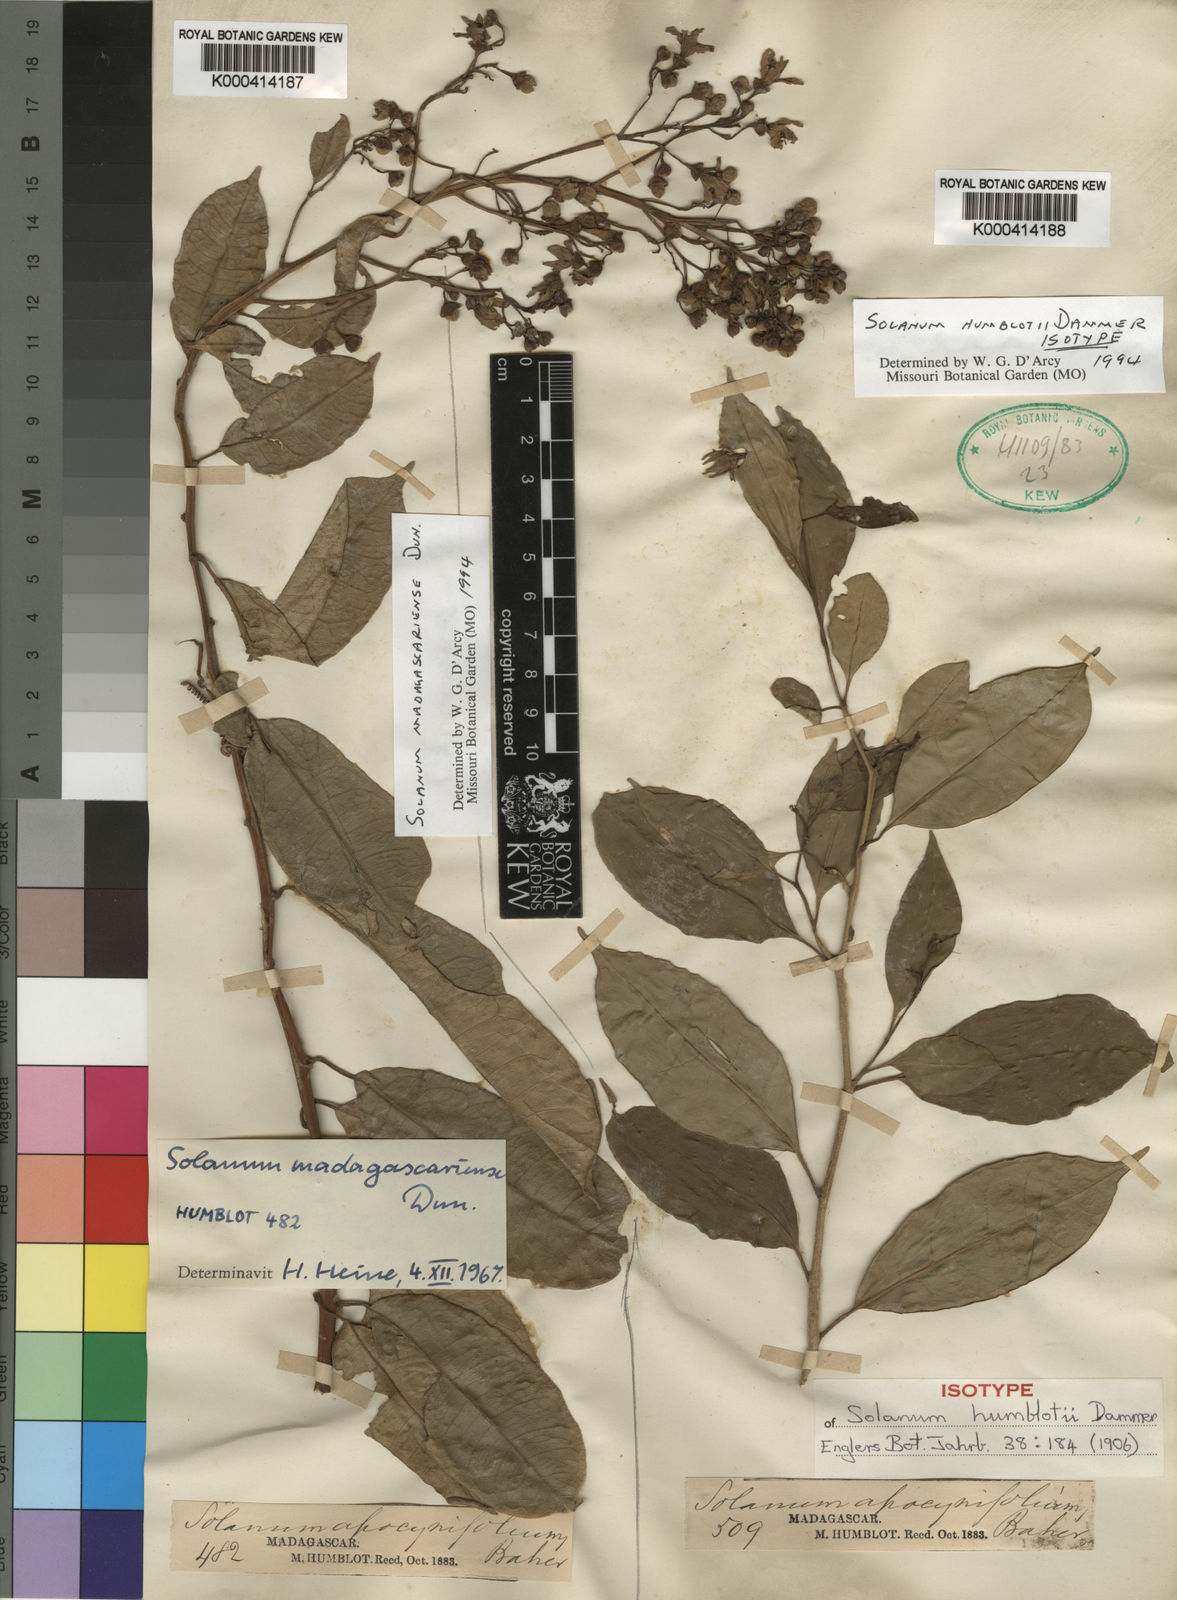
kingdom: Plantae
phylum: Tracheophyta
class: Magnoliopsida
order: Solanales
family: Solanaceae
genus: Solanum
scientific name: Solanum humblotii
